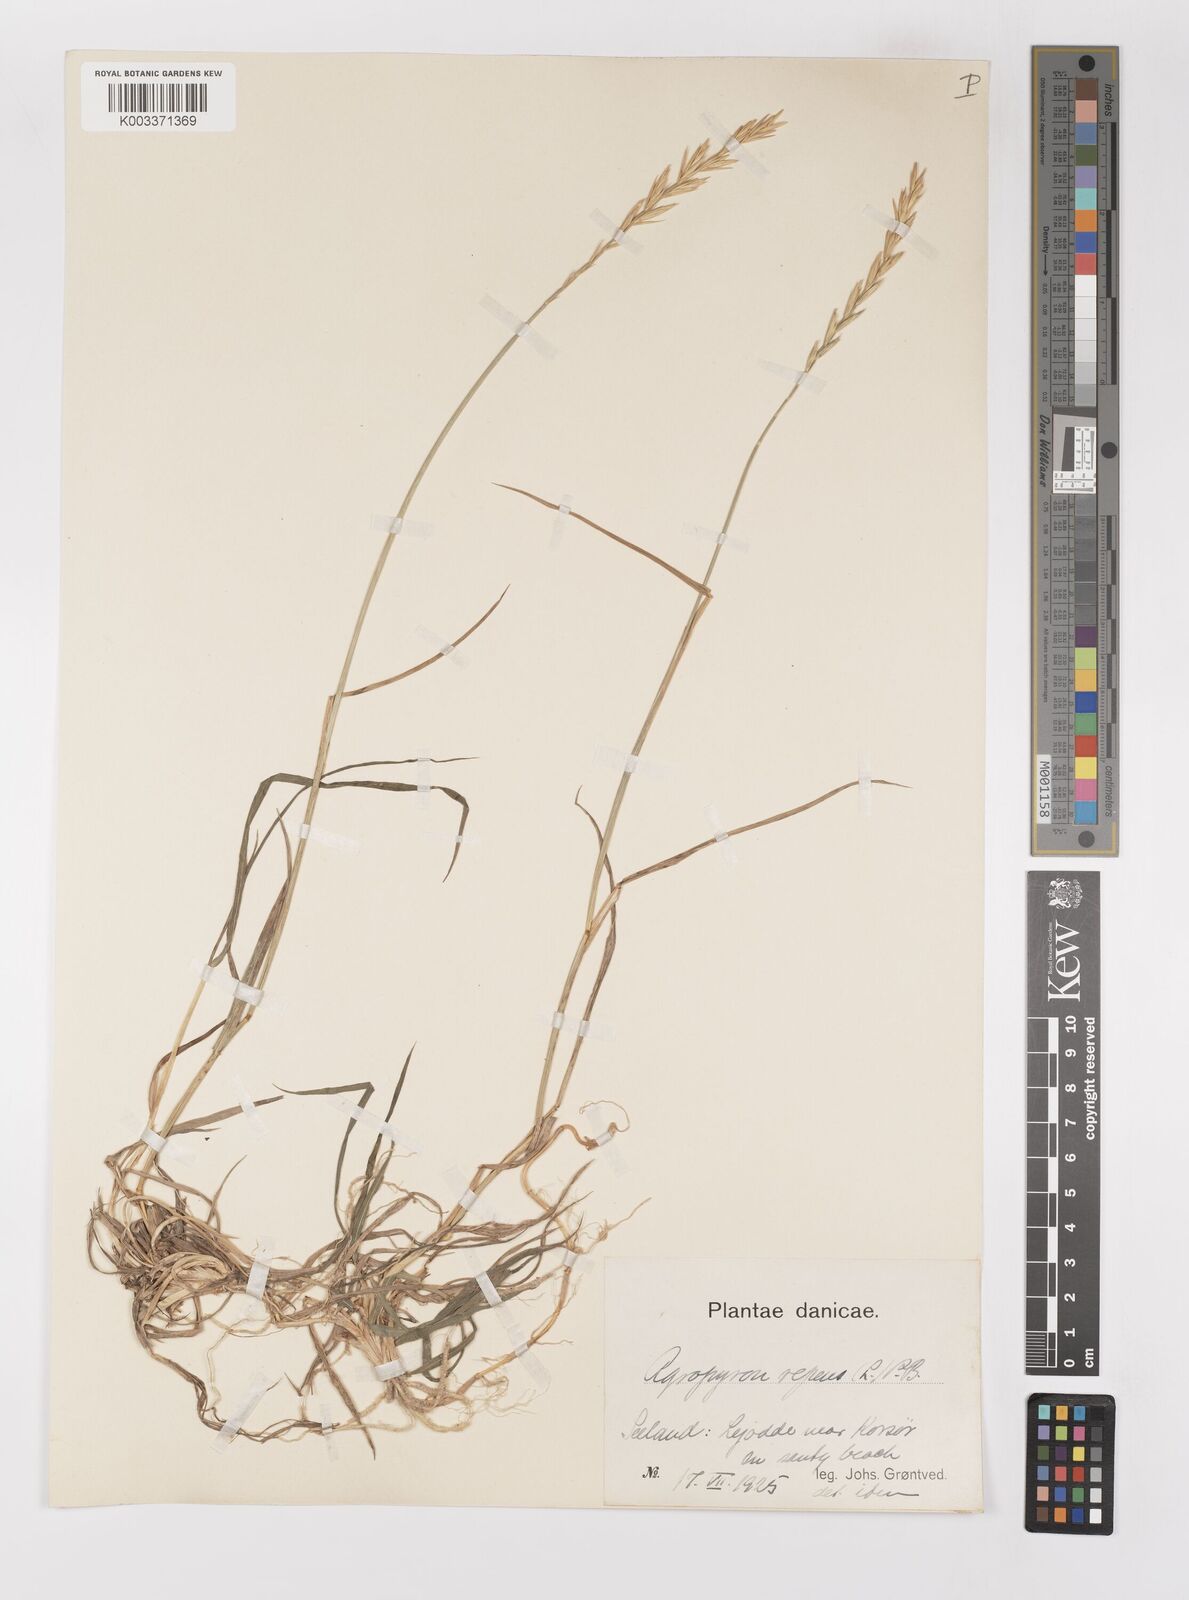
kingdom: Plantae
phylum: Tracheophyta
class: Liliopsida
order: Poales
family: Poaceae
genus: Elymus
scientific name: Elymus repens
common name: Quackgrass
